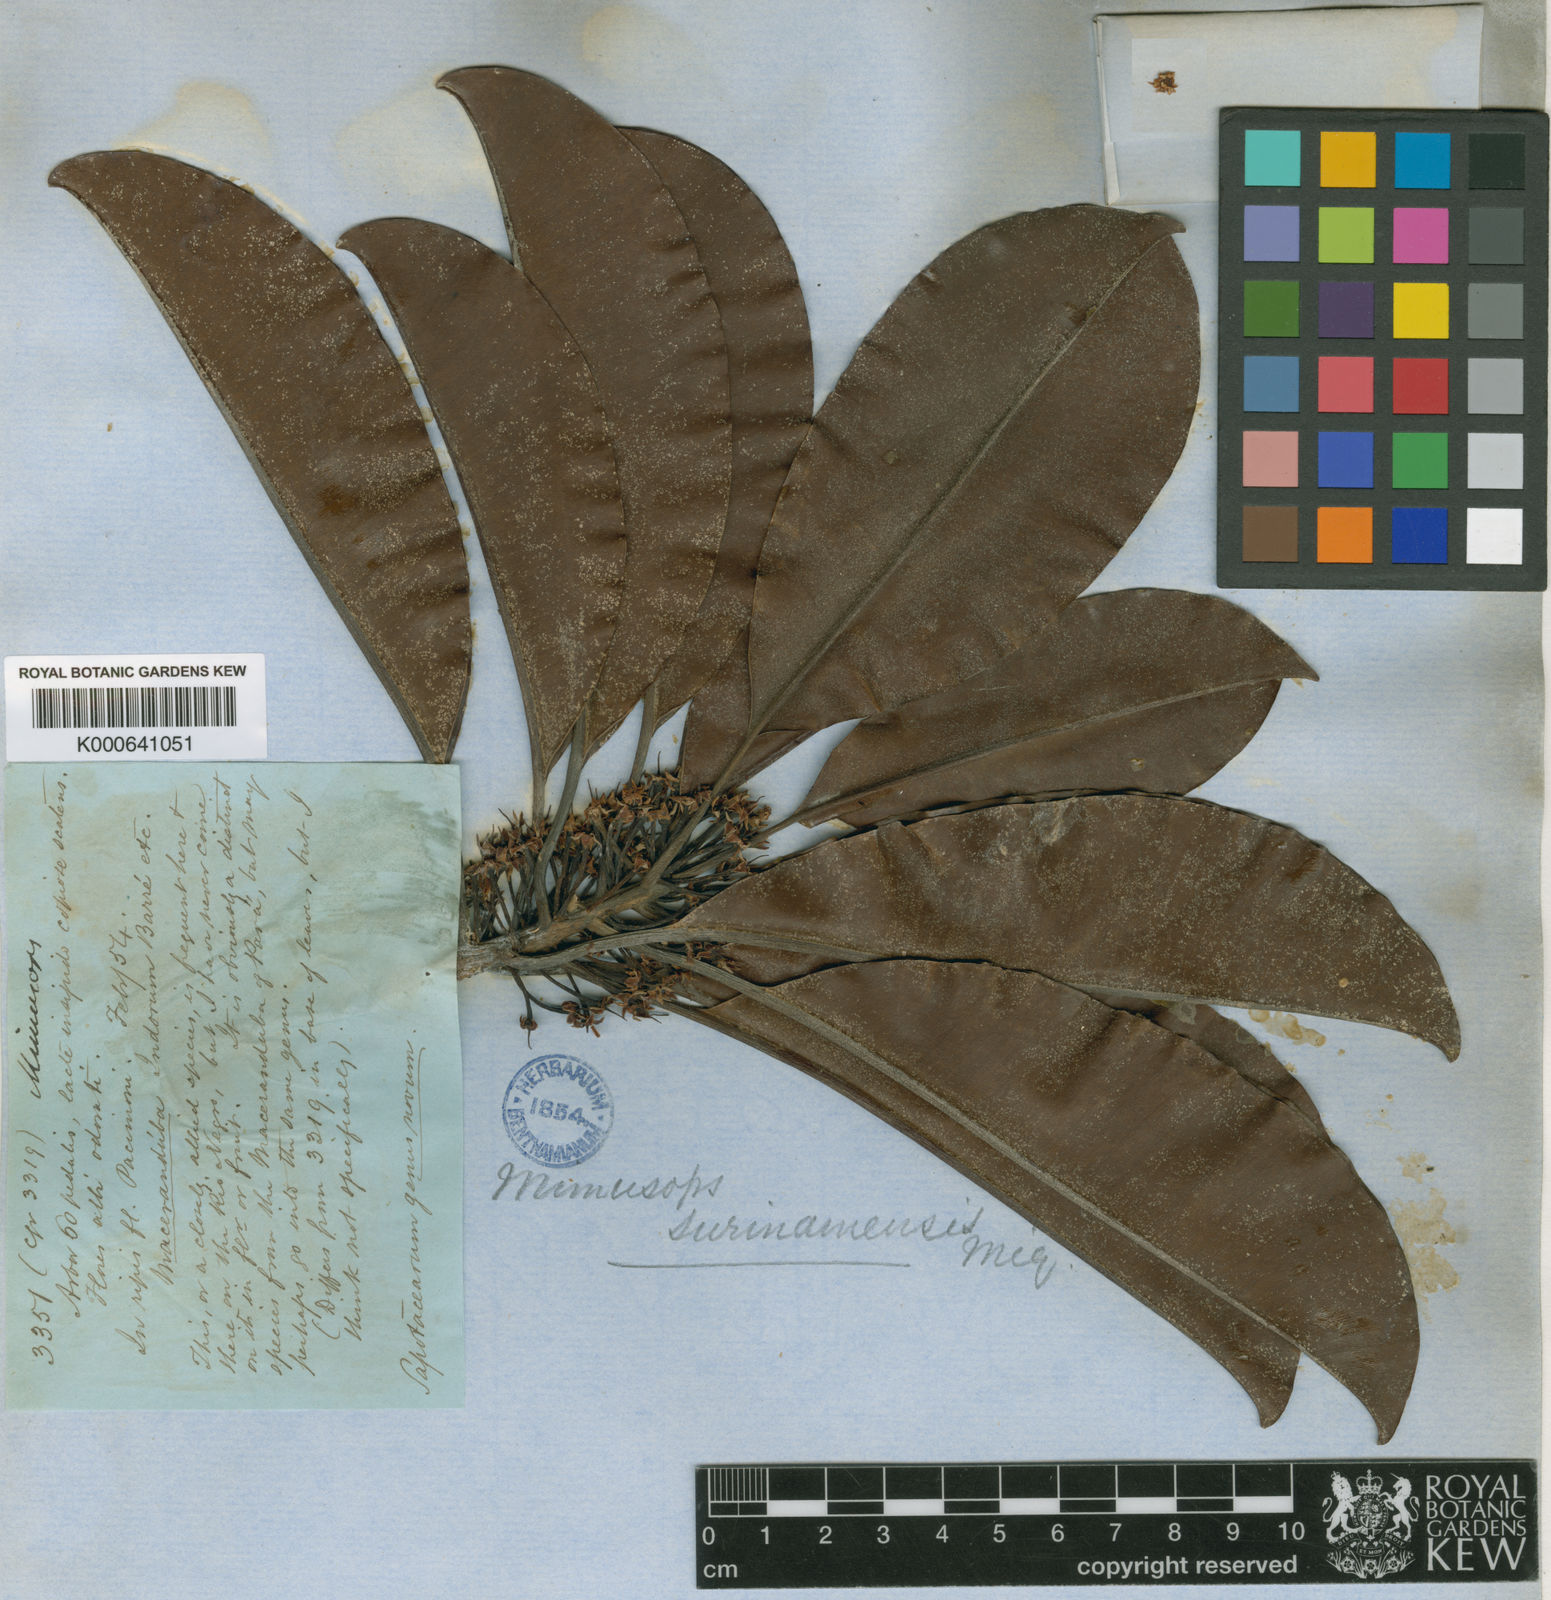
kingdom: Plantae
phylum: Tracheophyta
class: Magnoliopsida
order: Ericales
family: Sapotaceae
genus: Manilkara
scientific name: Manilkara bidentata
